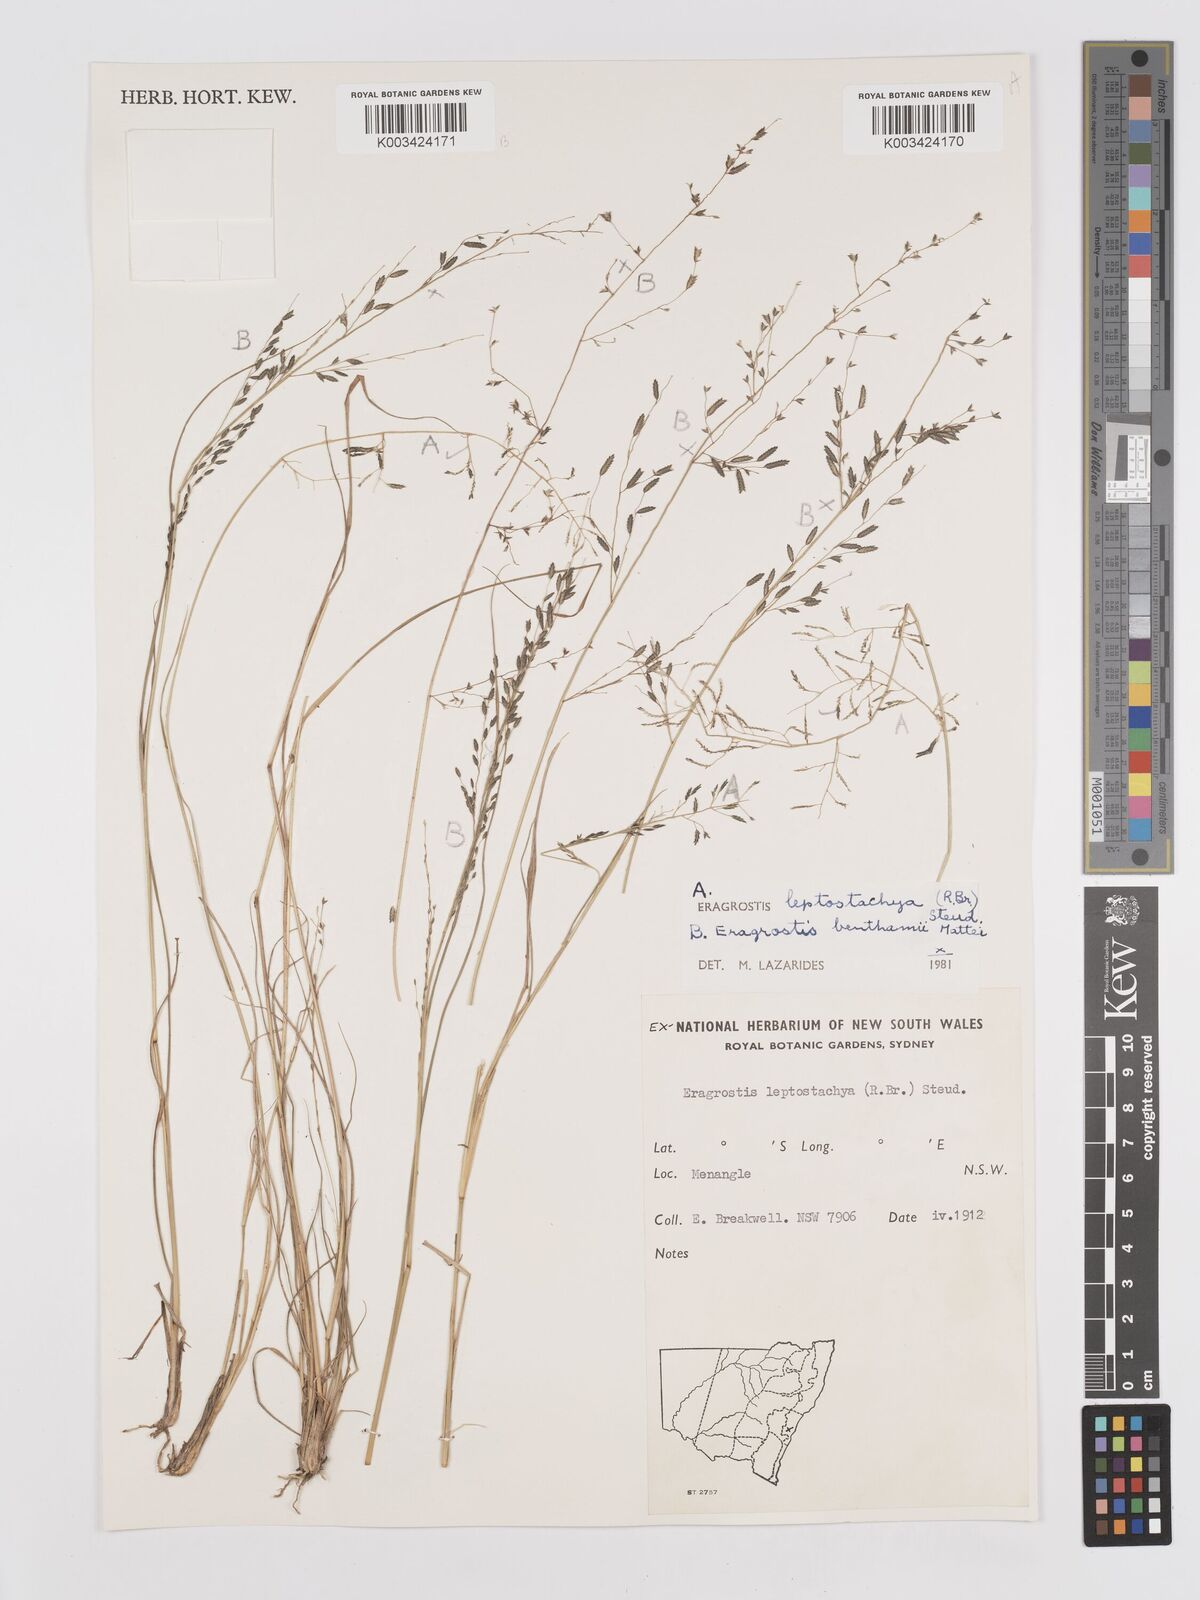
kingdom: Plantae
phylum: Tracheophyta
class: Liliopsida
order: Poales
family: Poaceae
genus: Eragrostis
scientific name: Eragrostis brownii
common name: Lovegrass
